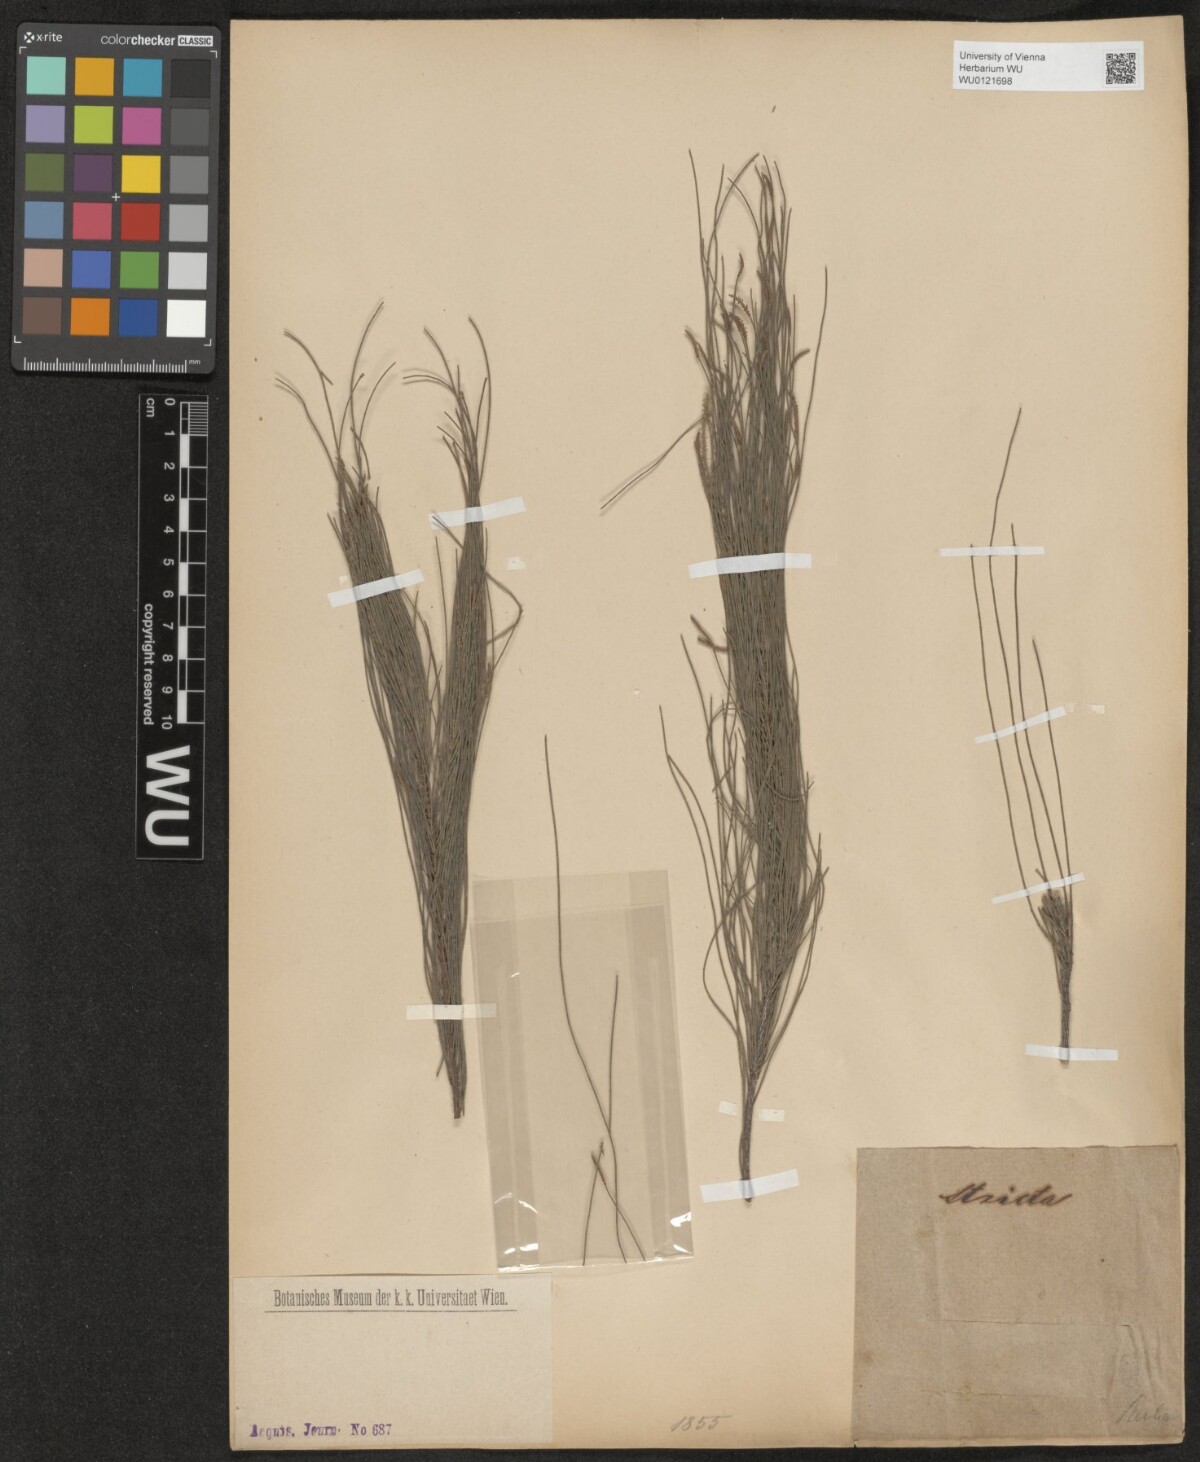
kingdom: Plantae
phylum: Tracheophyta
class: Magnoliopsida
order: Fagales
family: Casuarinaceae
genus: Casuarina
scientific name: Casuarina stricta
